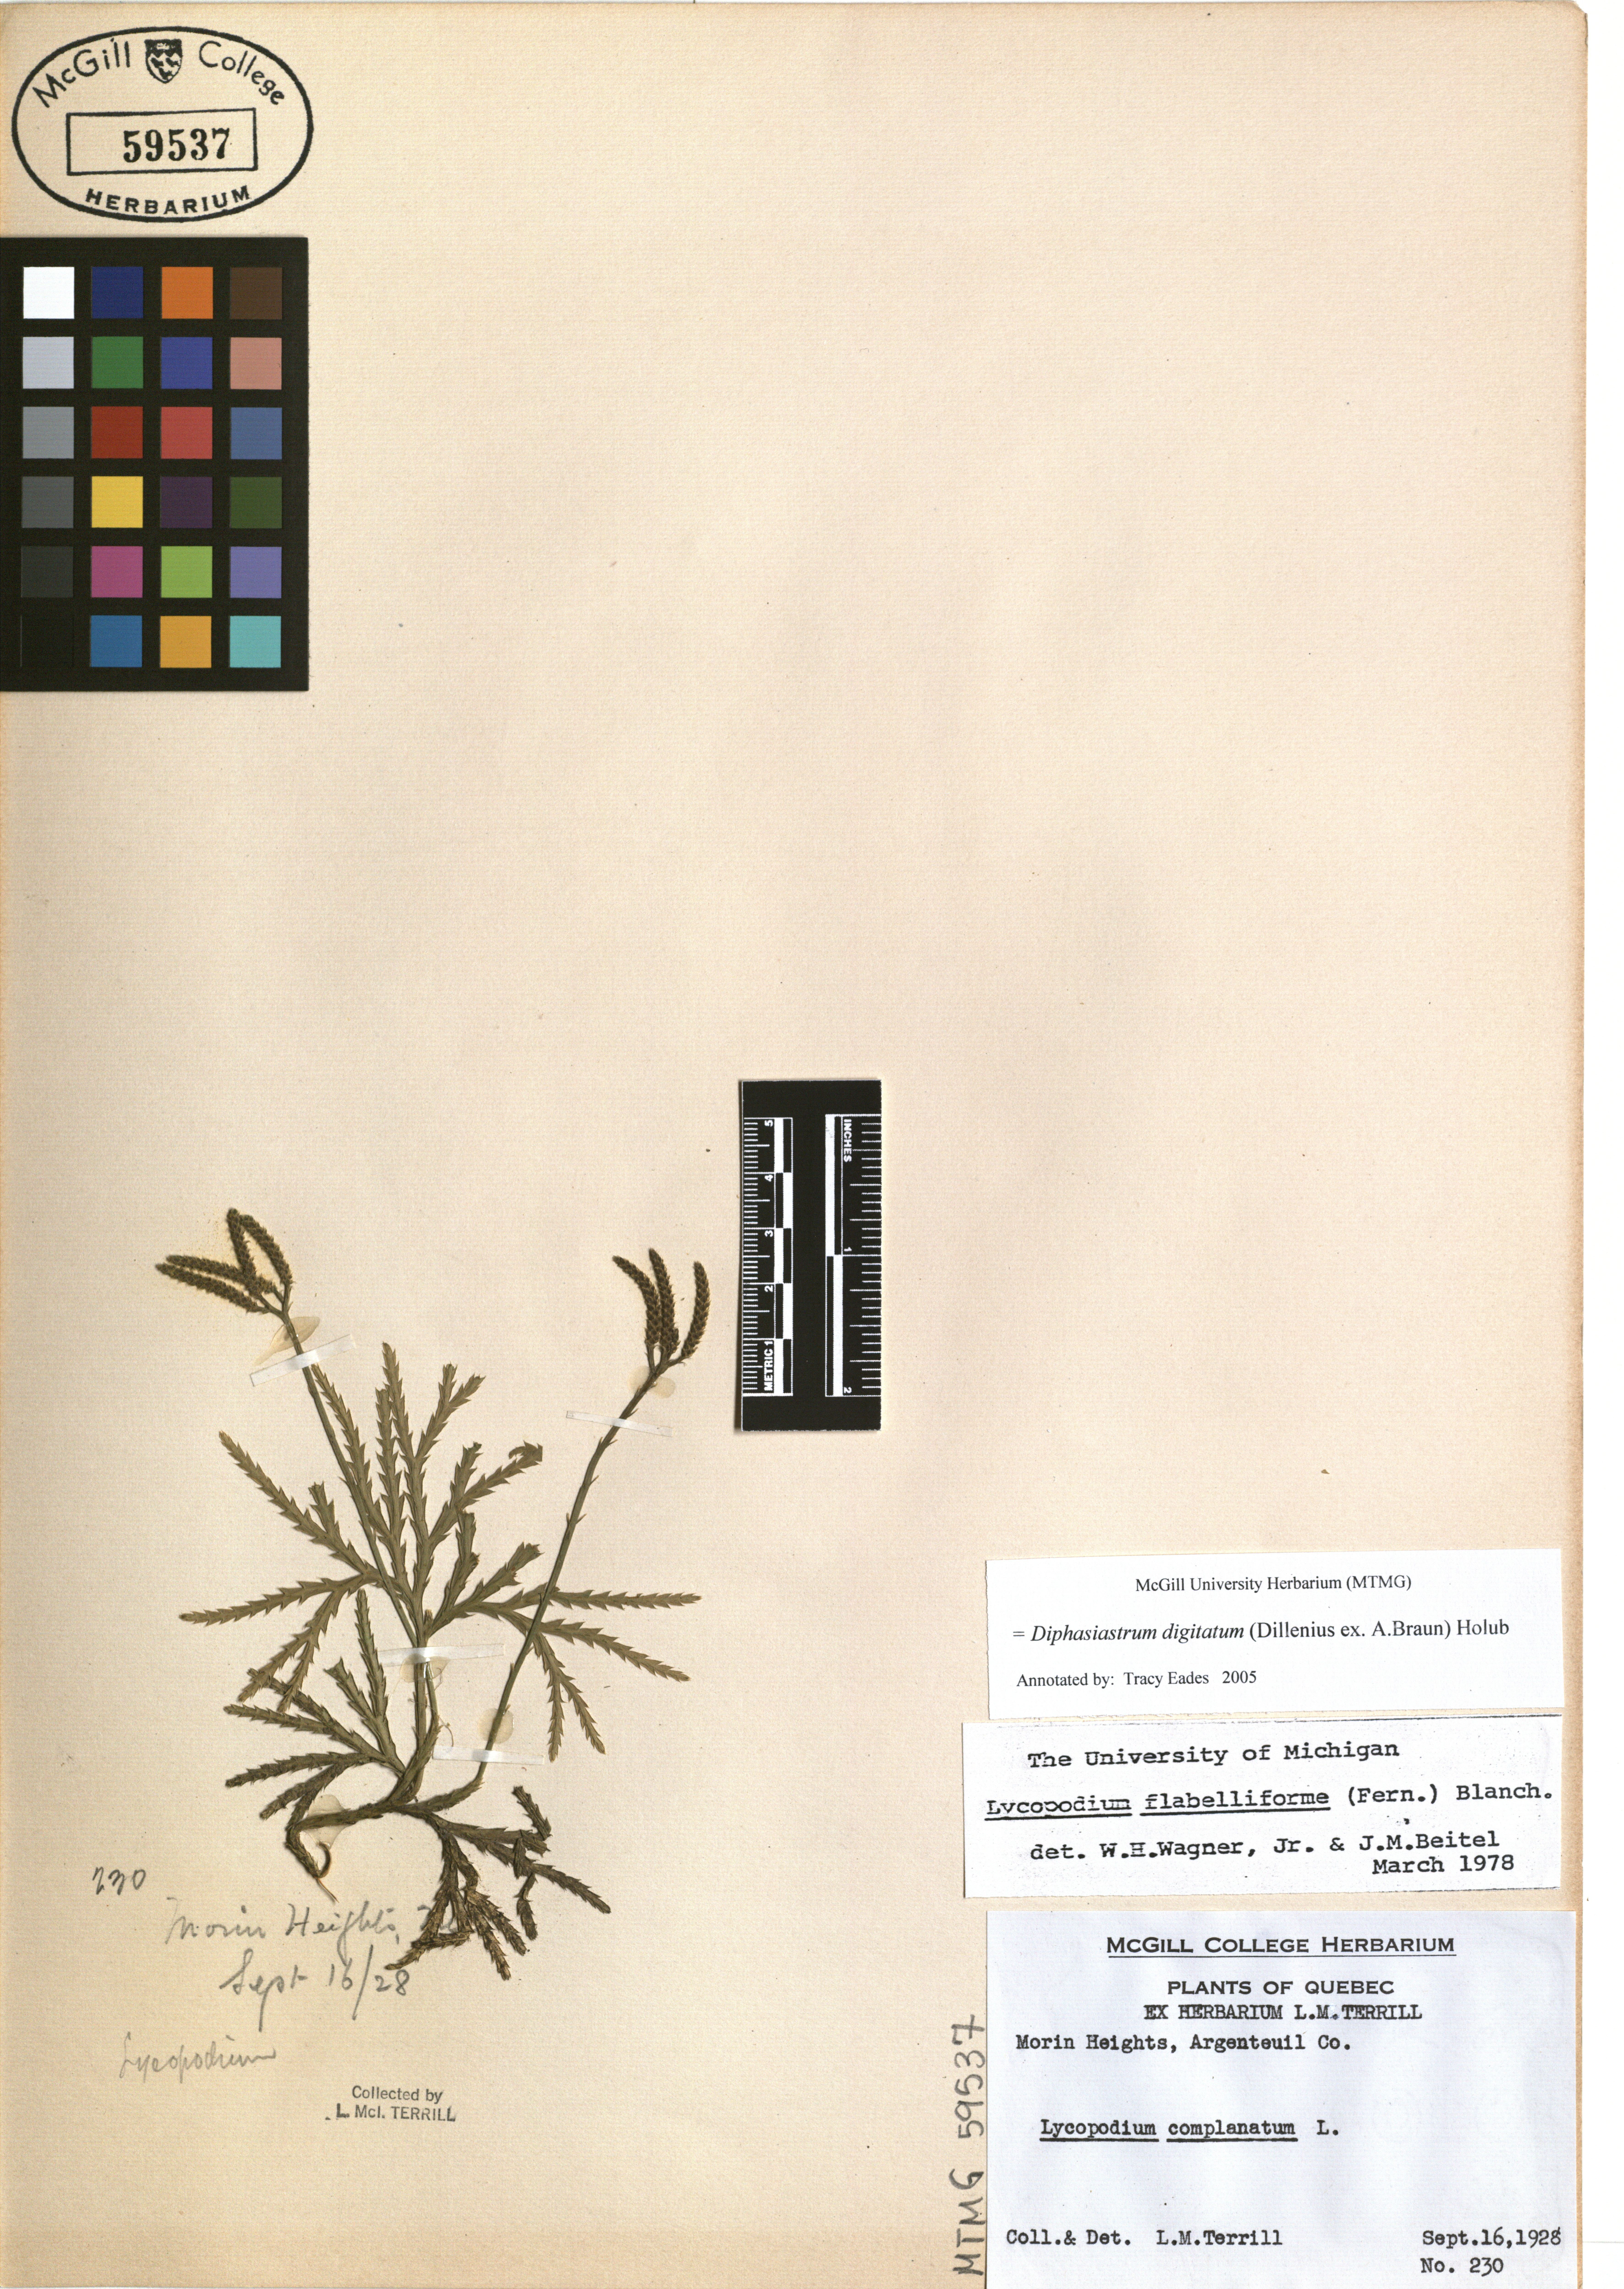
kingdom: Plantae
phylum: Tracheophyta
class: Lycopodiopsida
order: Lycopodiales
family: Lycopodiaceae
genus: Diphasiastrum
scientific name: Diphasiastrum digitatum
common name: Southern running-pine
